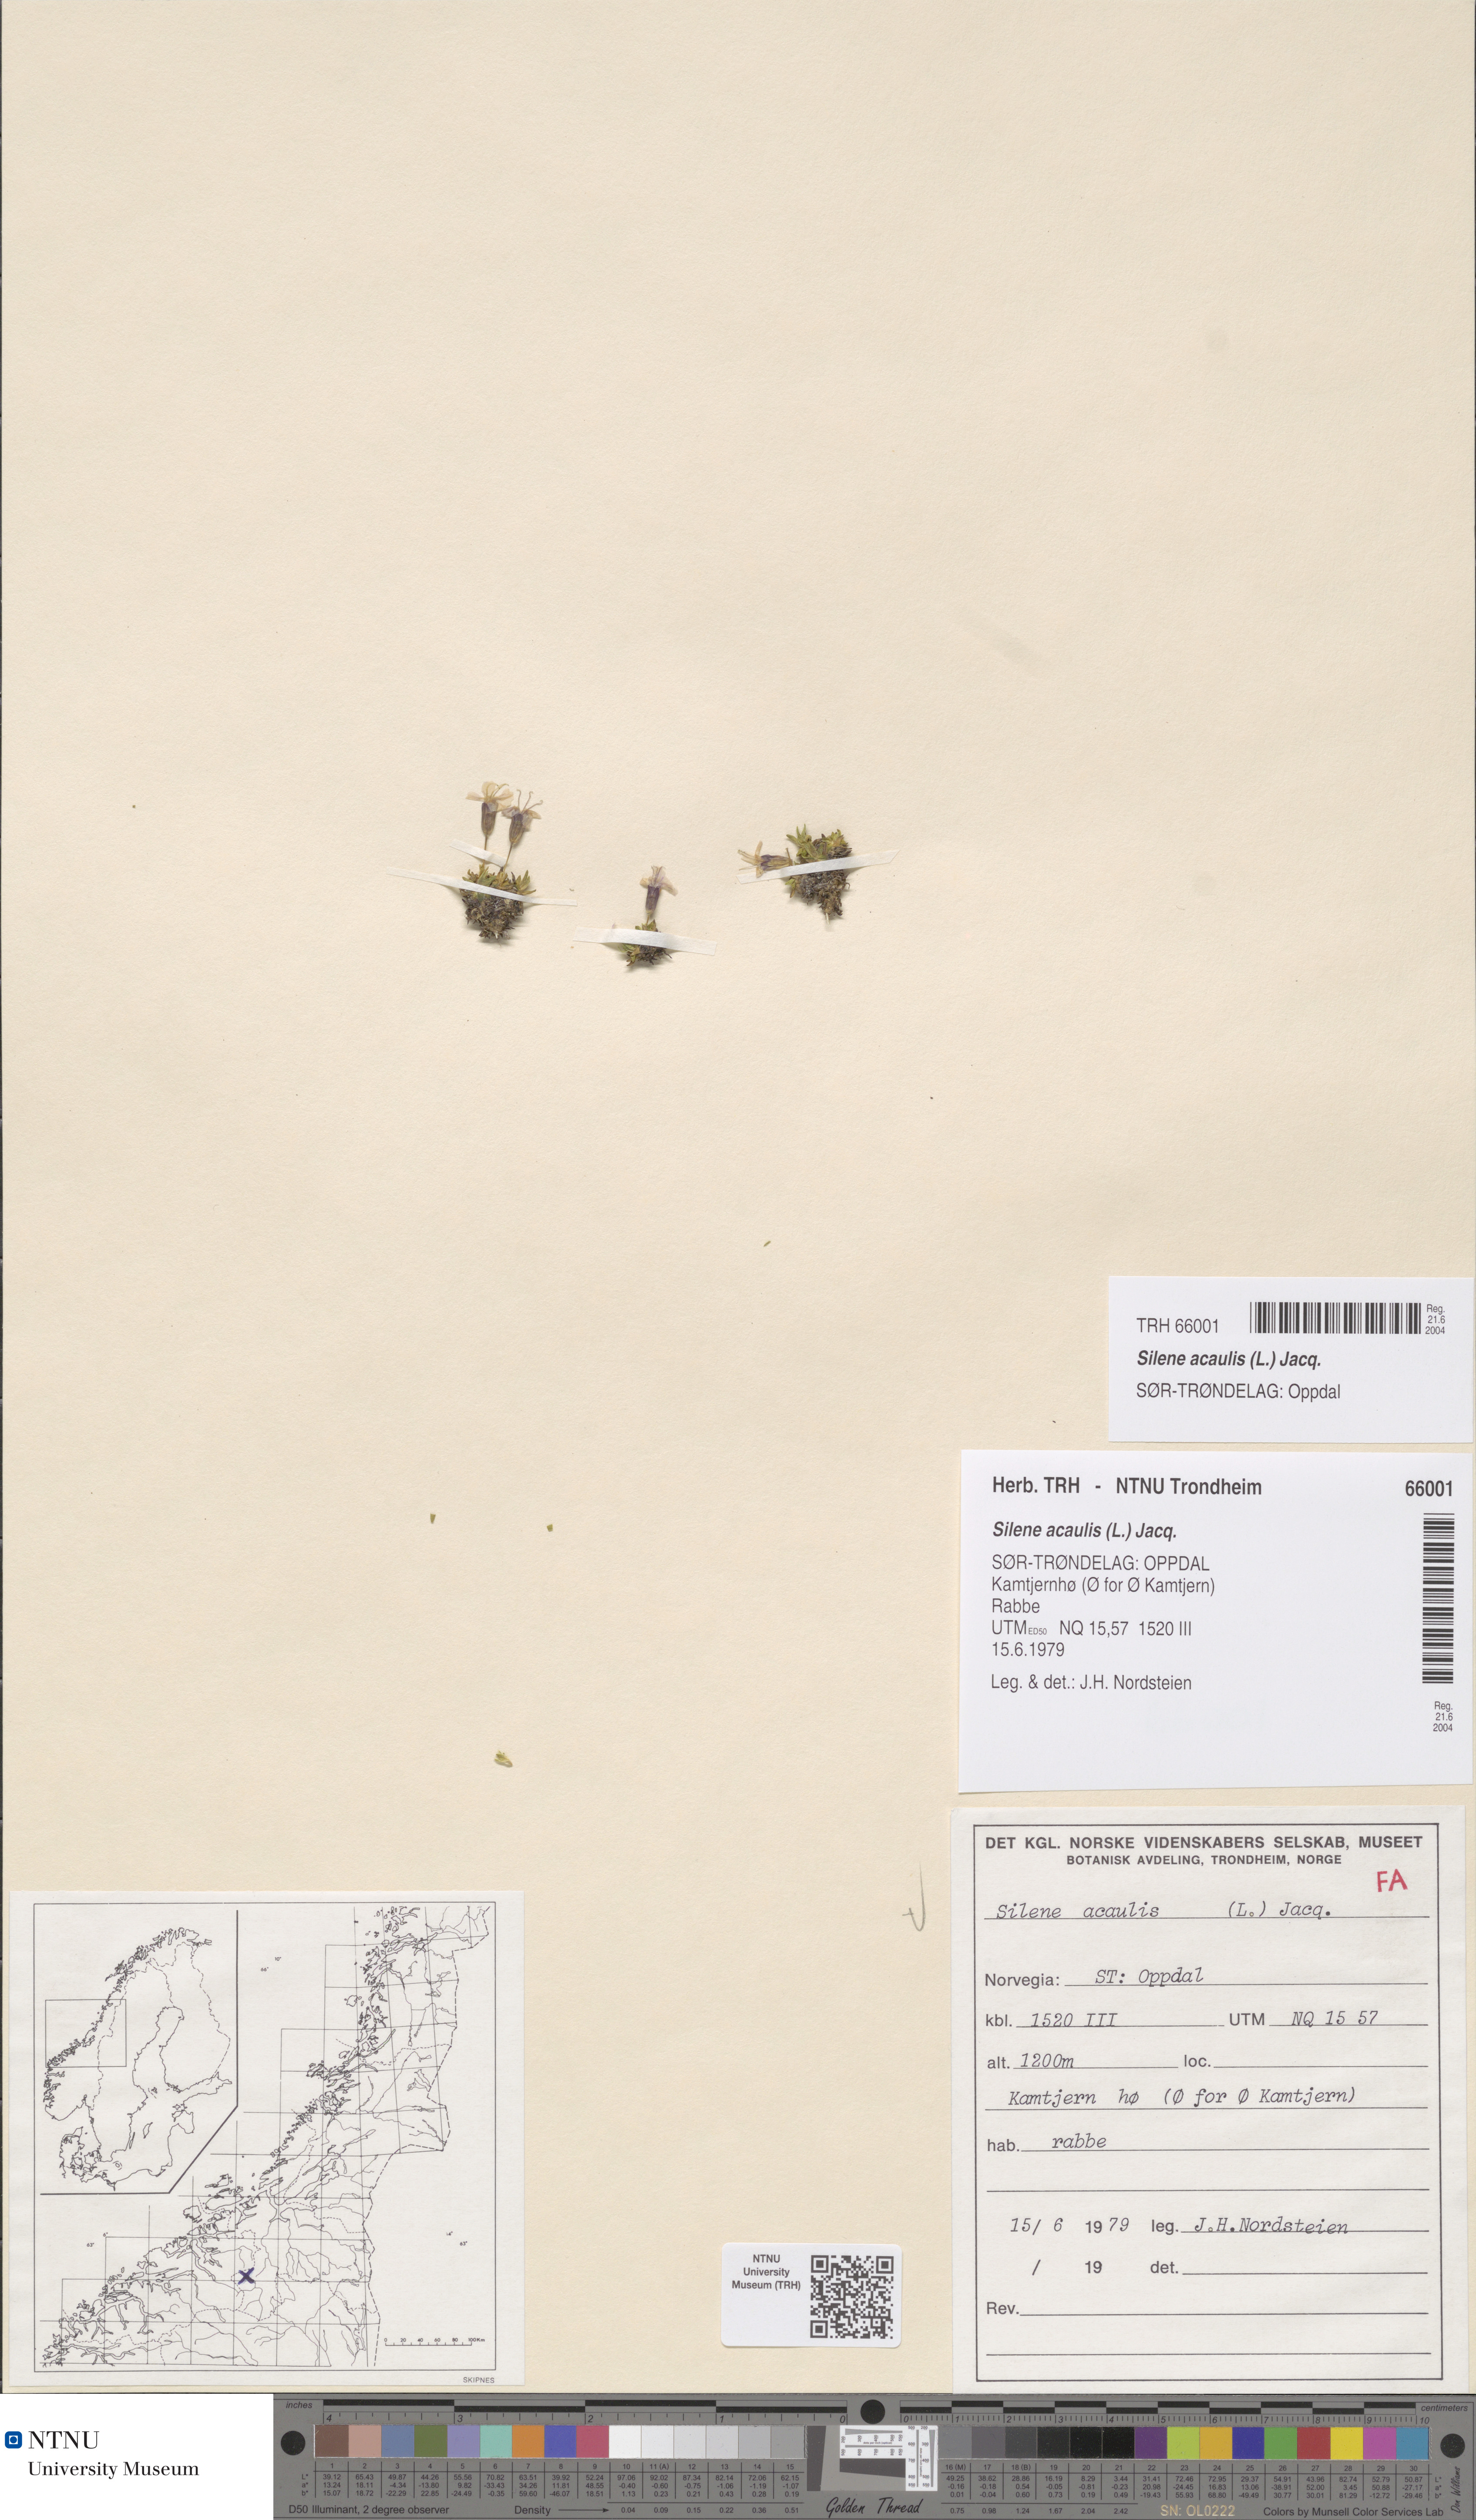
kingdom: Plantae
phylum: Tracheophyta
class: Magnoliopsida
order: Caryophyllales
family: Caryophyllaceae
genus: Silene
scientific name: Silene acaulis
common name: Moss campion
